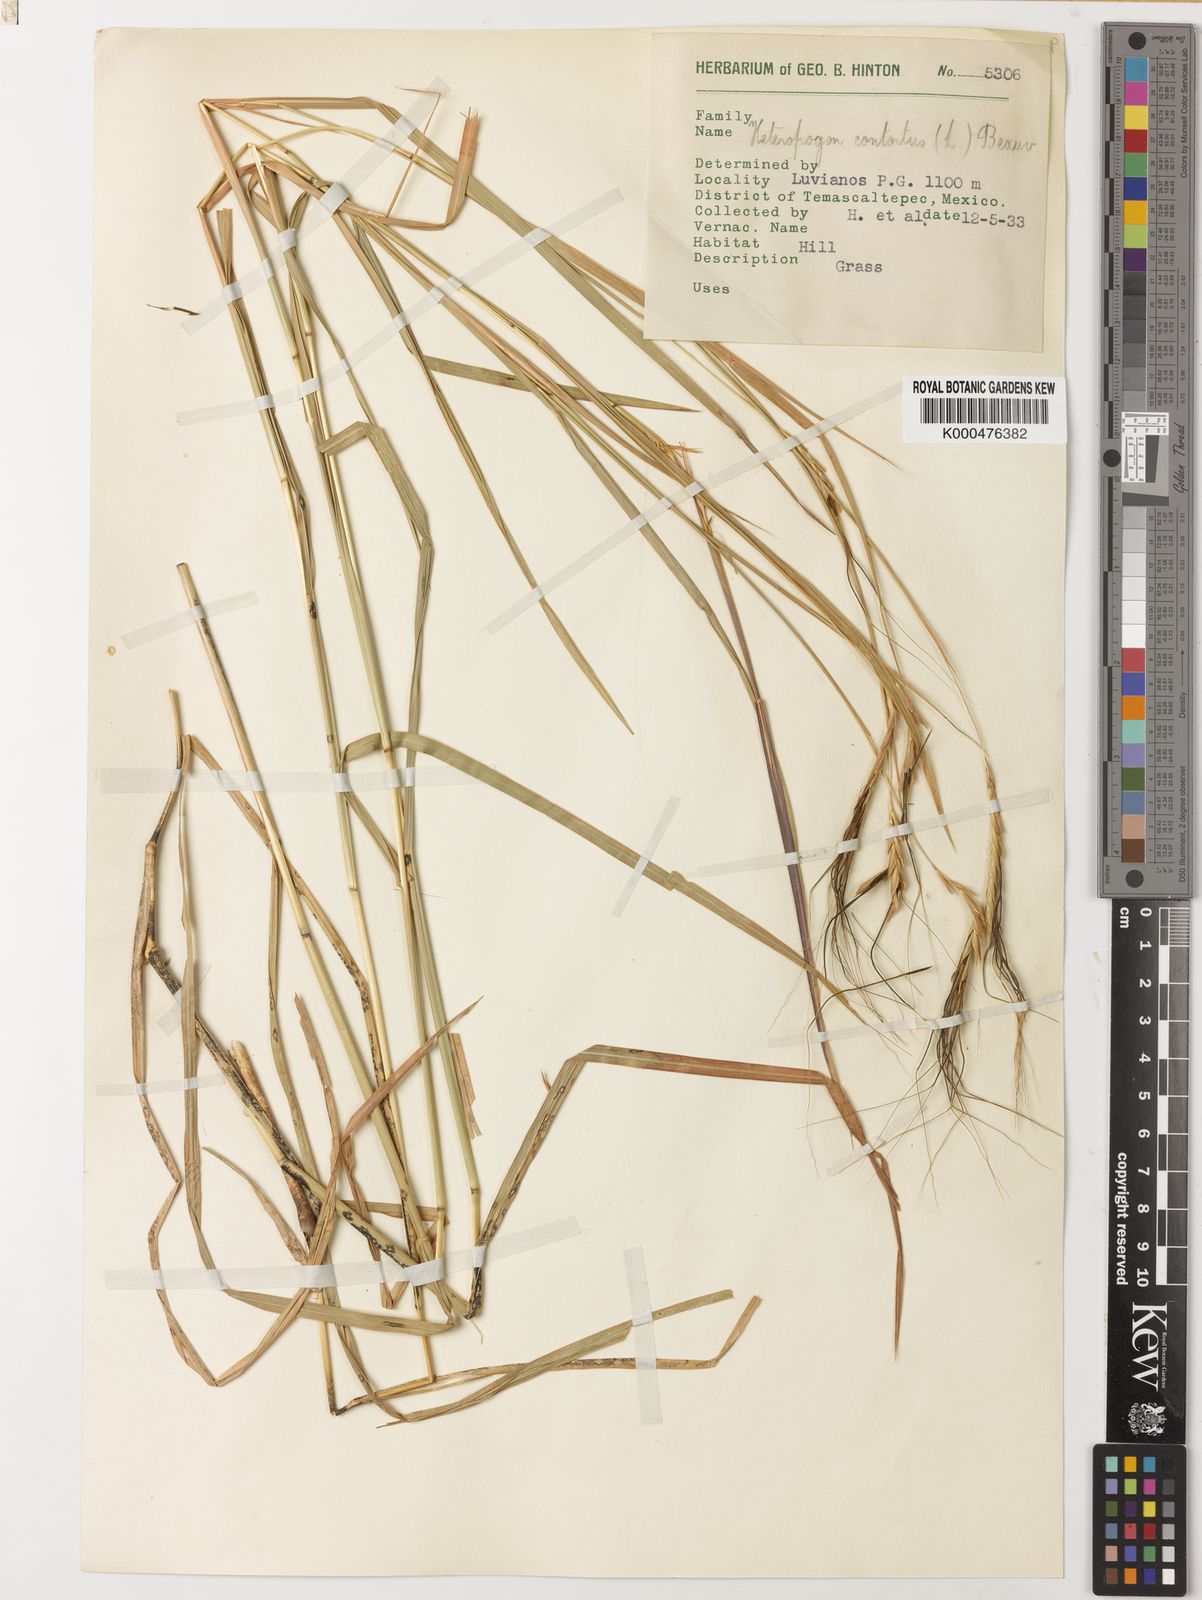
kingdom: Plantae
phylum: Tracheophyta
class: Liliopsida
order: Poales
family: Poaceae
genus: Heteropogon
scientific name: Heteropogon contortus
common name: Tanglehead
